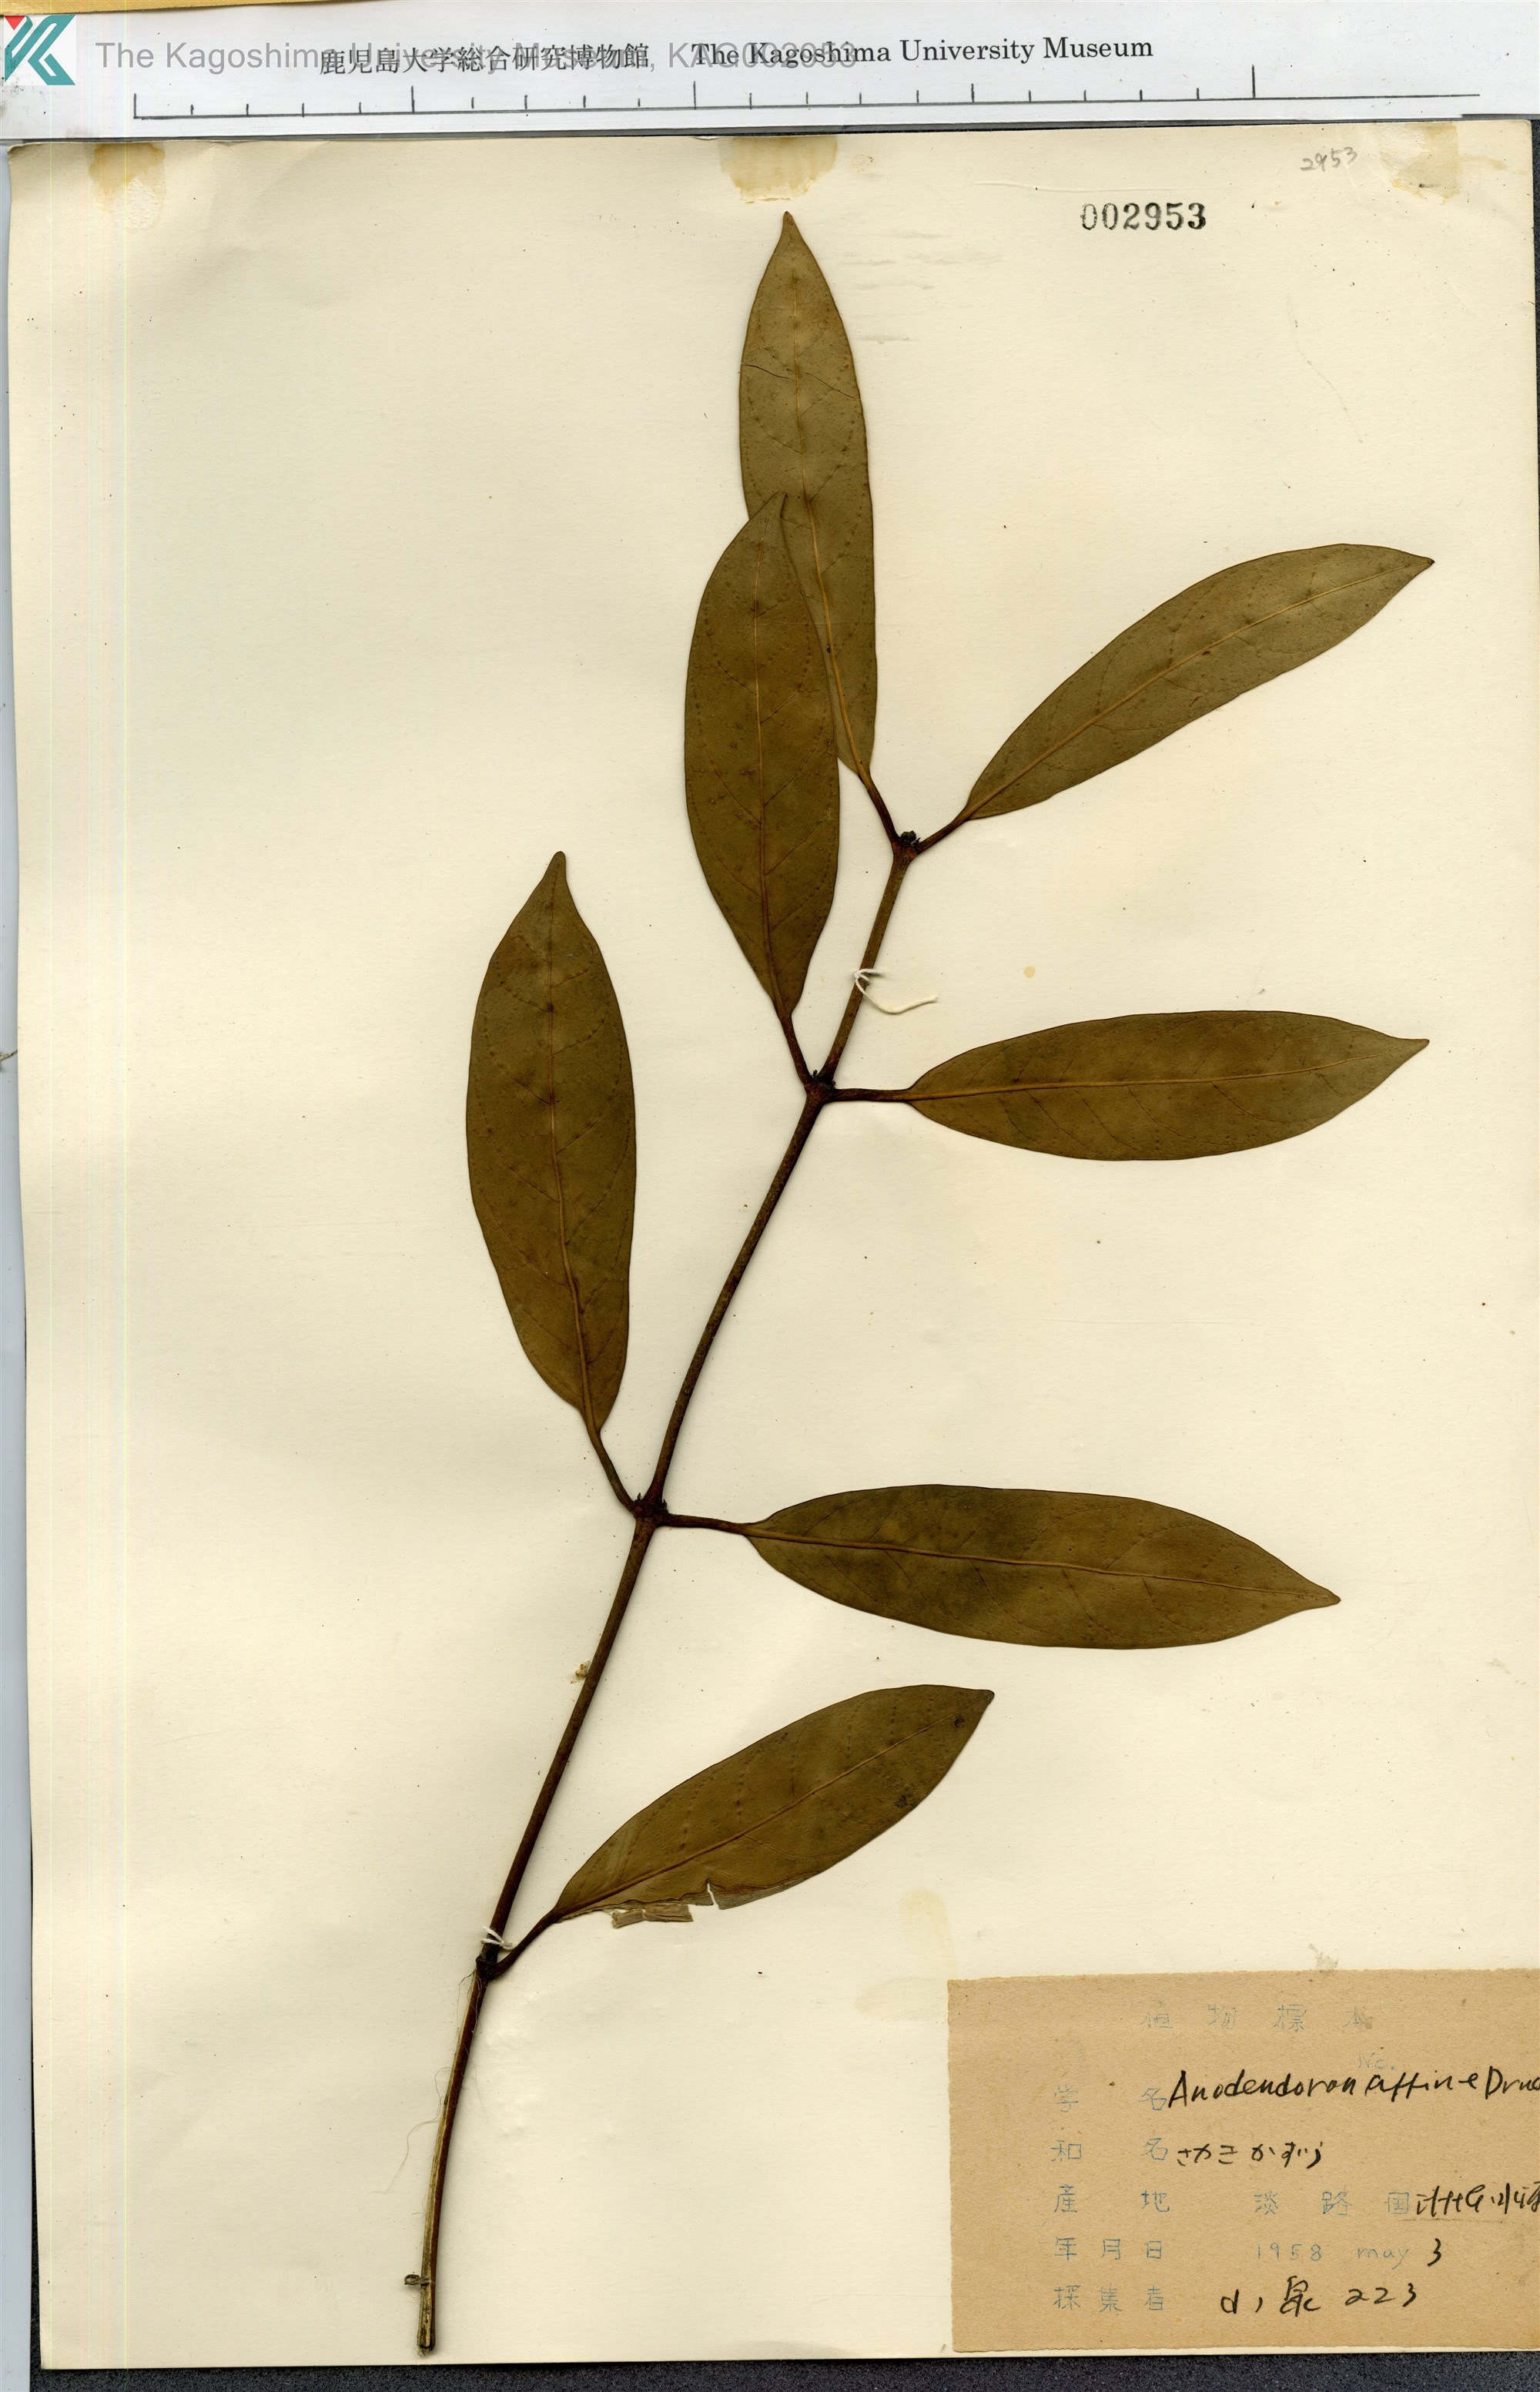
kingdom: Plantae
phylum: Tracheophyta
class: Magnoliopsida
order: Gentianales
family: Apocynaceae
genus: Anodendron
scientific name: Anodendron affine
